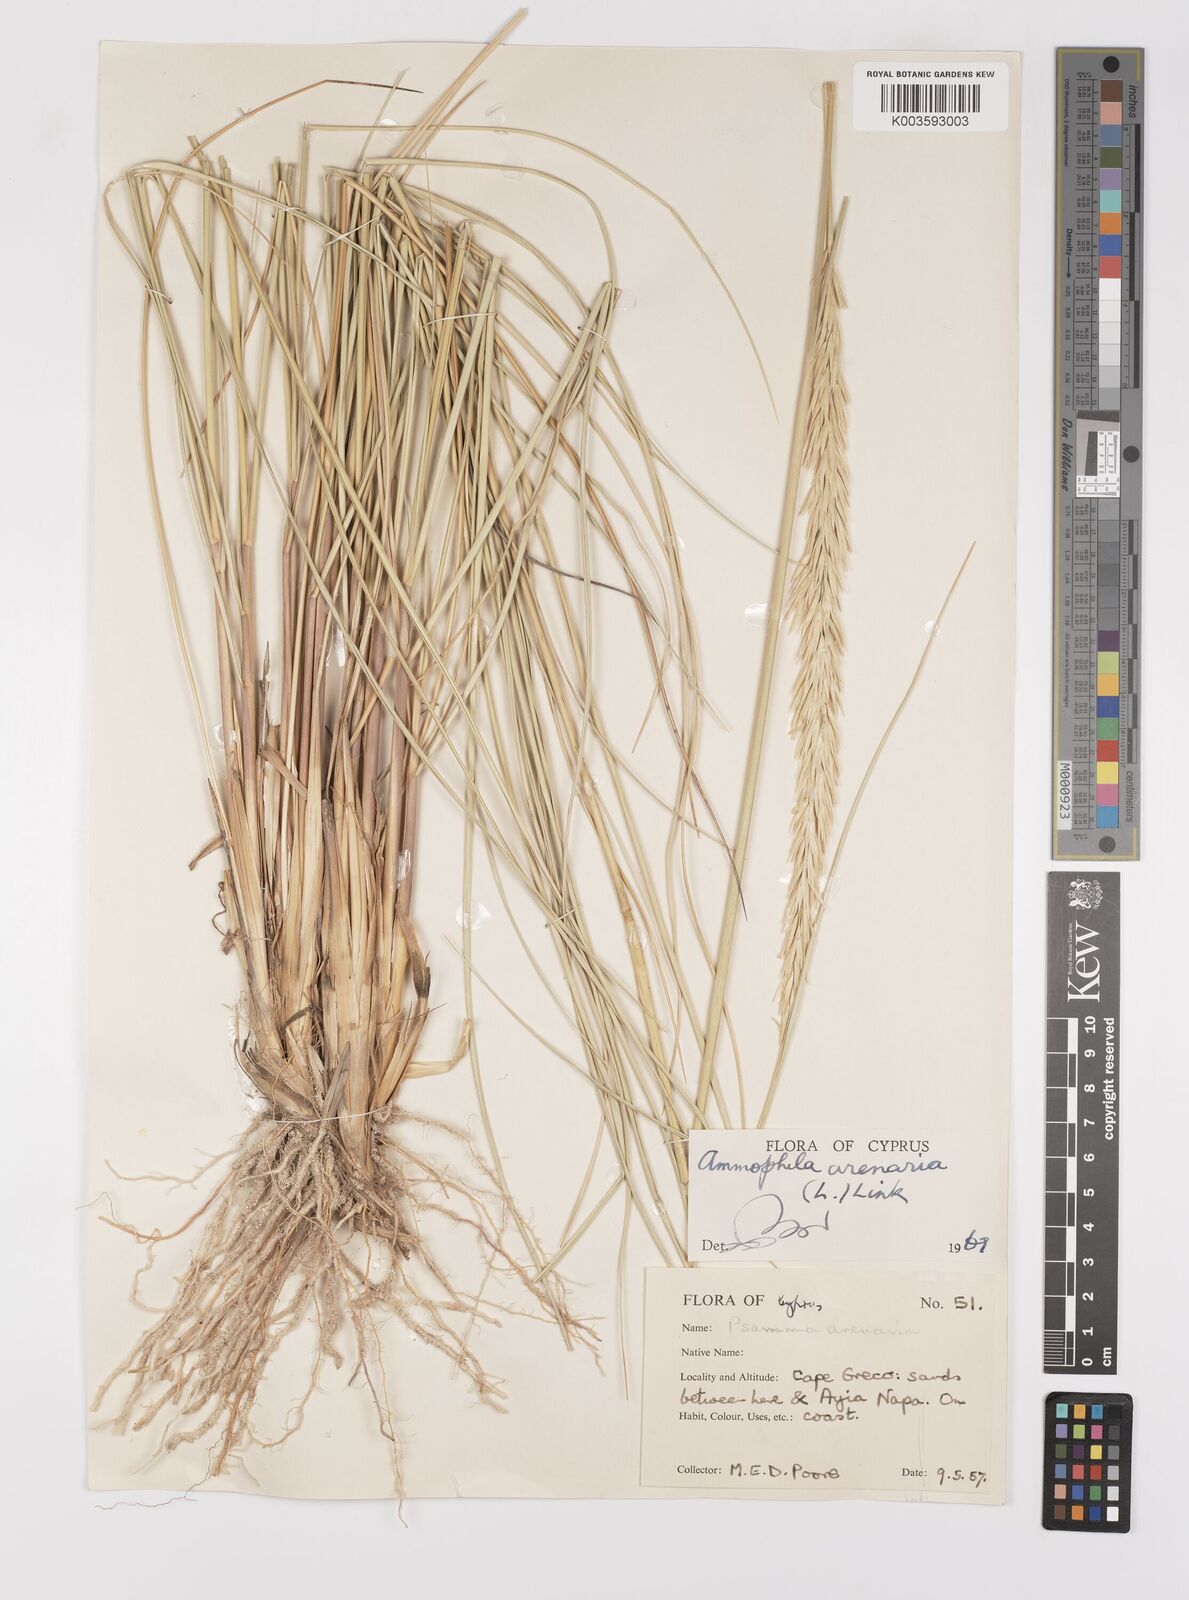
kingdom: Plantae
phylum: Tracheophyta
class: Liliopsida
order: Poales
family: Poaceae
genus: Calamagrostis
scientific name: Calamagrostis arenaria
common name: European beachgrass
